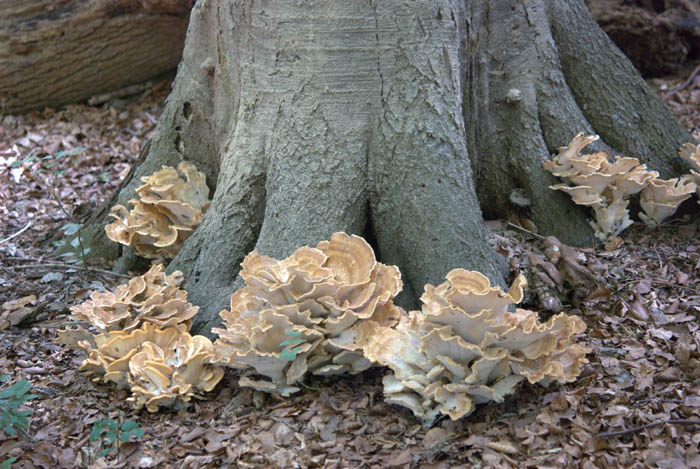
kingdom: Fungi
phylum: Basidiomycota
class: Agaricomycetes
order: Polyporales
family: Meripilaceae
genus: Meripilus
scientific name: Meripilus giganteus
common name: kæmpeporesvamp
